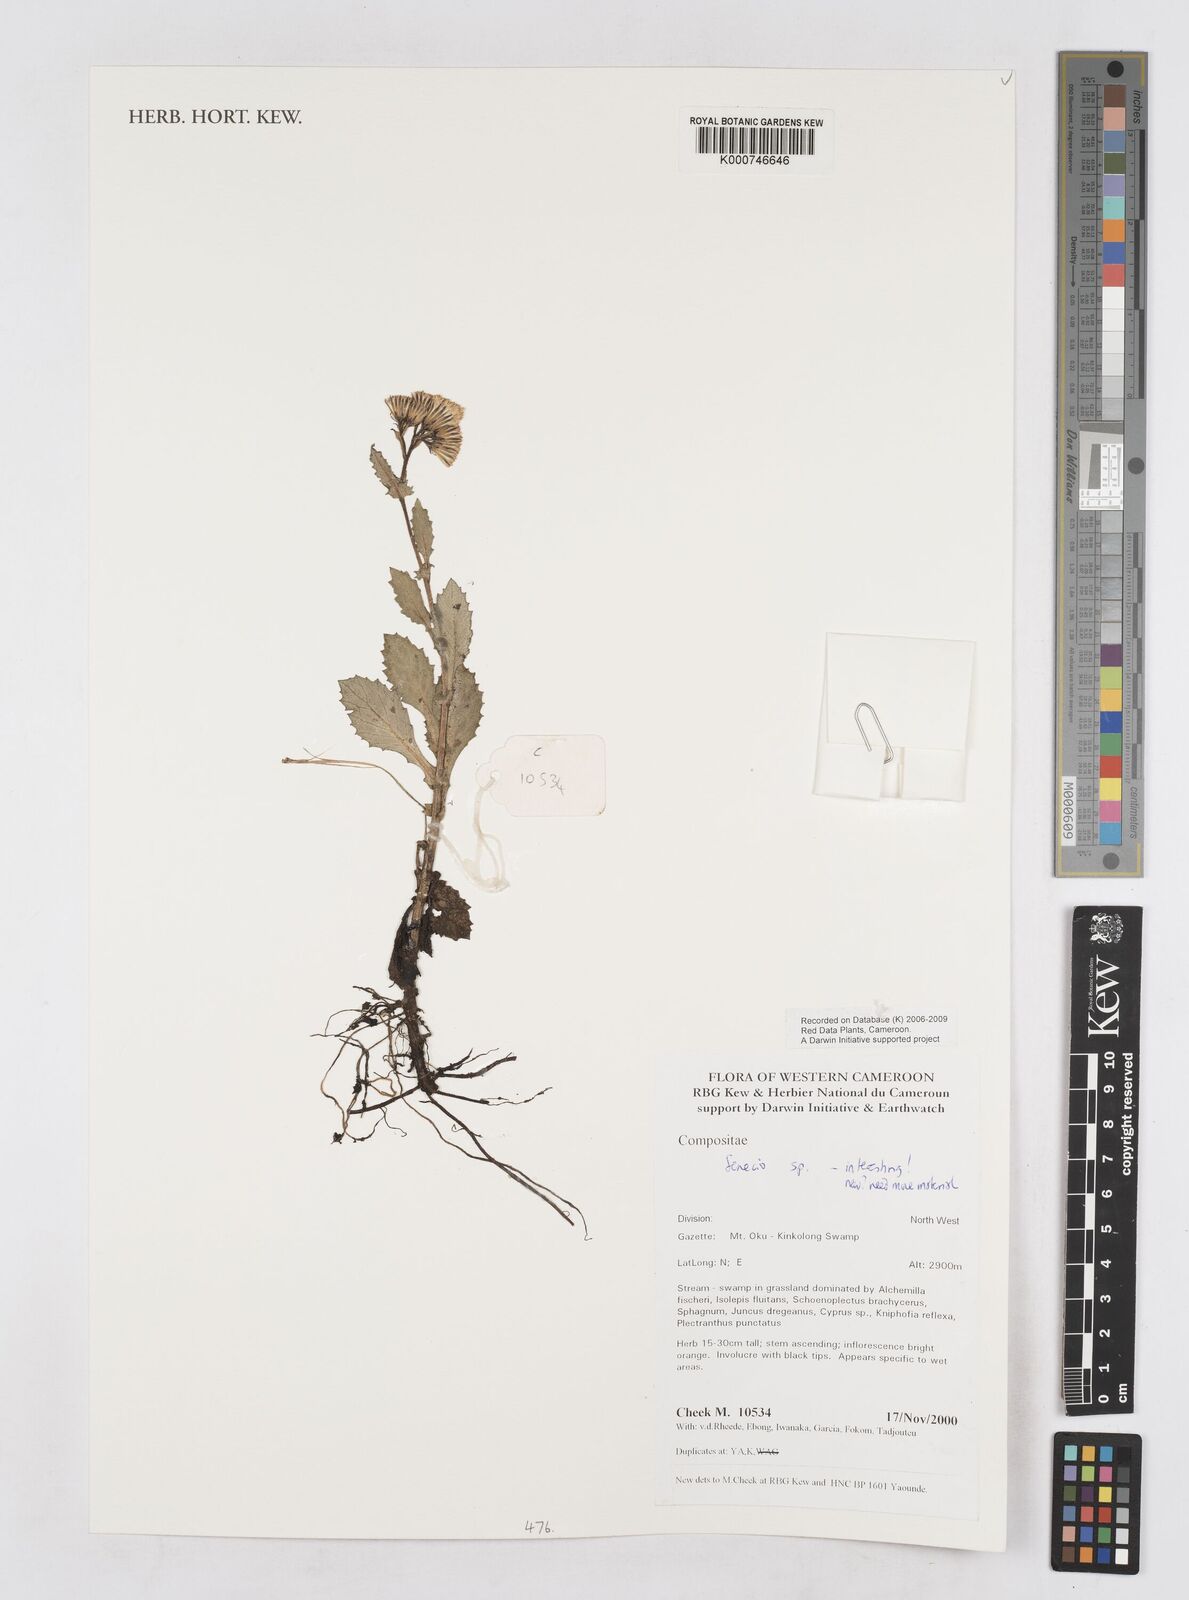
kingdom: Plantae
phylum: Tracheophyta
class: Magnoliopsida
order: Asterales
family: Asteraceae
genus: Senecio
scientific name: Senecio
